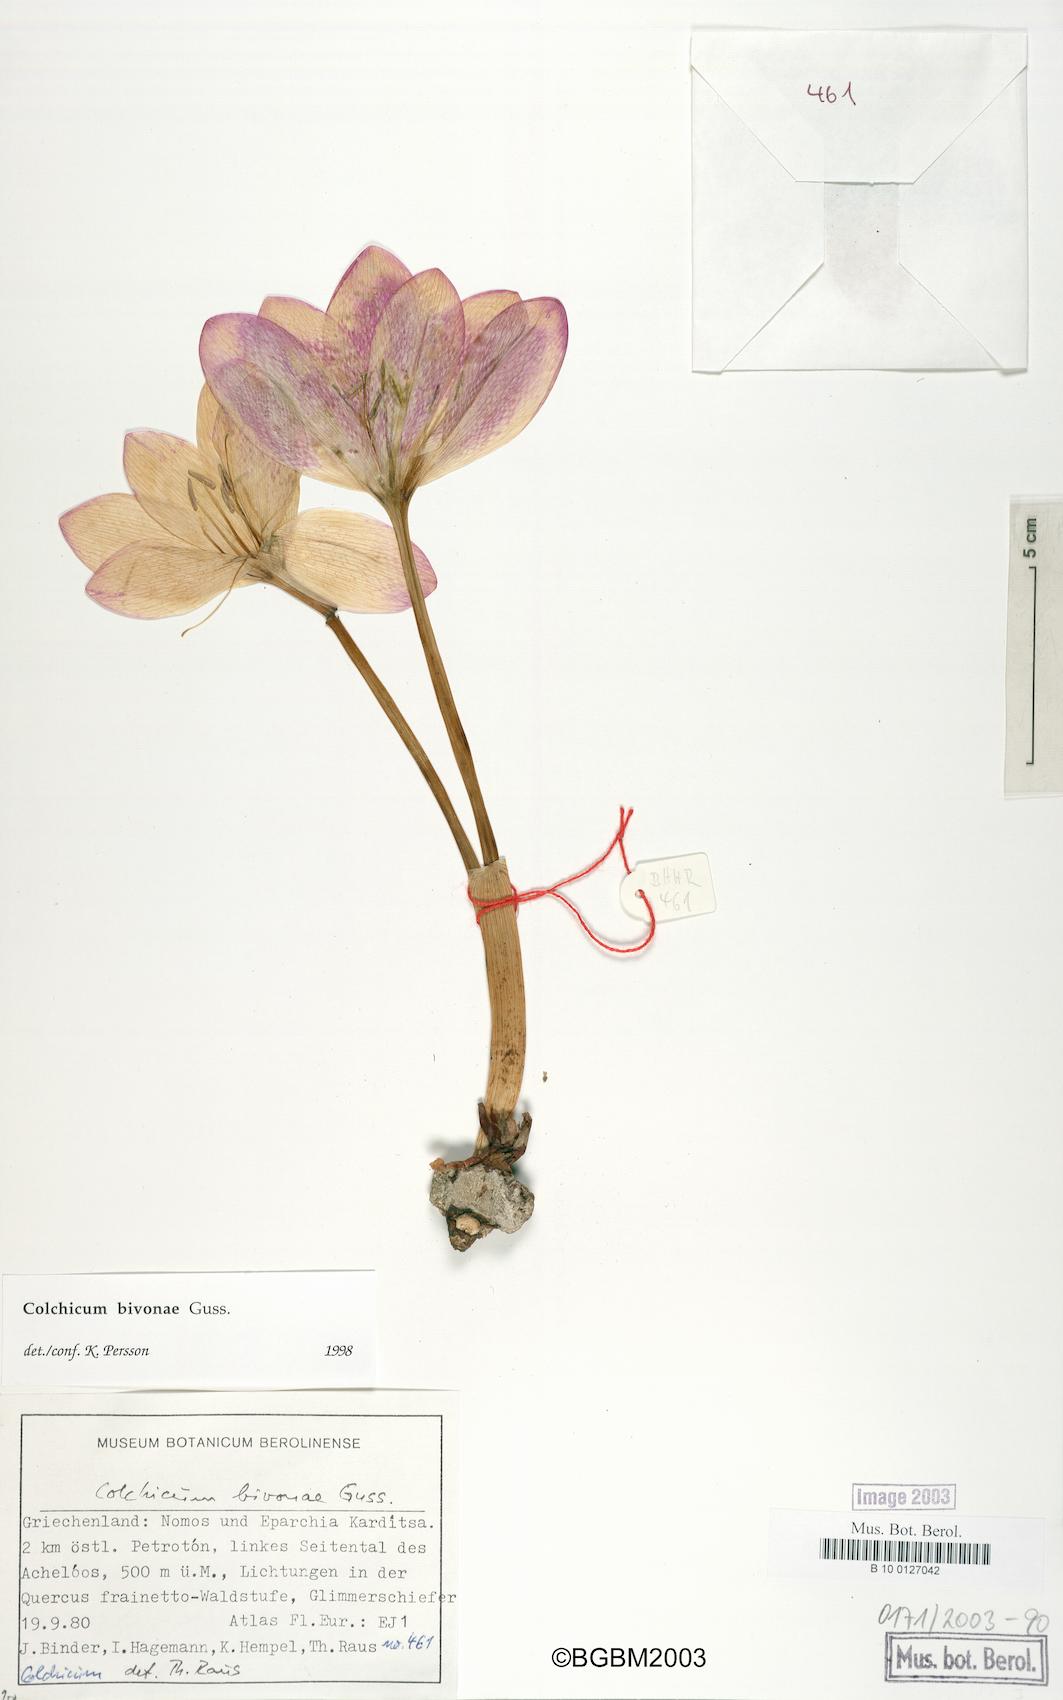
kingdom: Plantae
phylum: Tracheophyta
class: Liliopsida
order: Liliales
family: Colchicaceae
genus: Colchicum
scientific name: Colchicum bivonae
